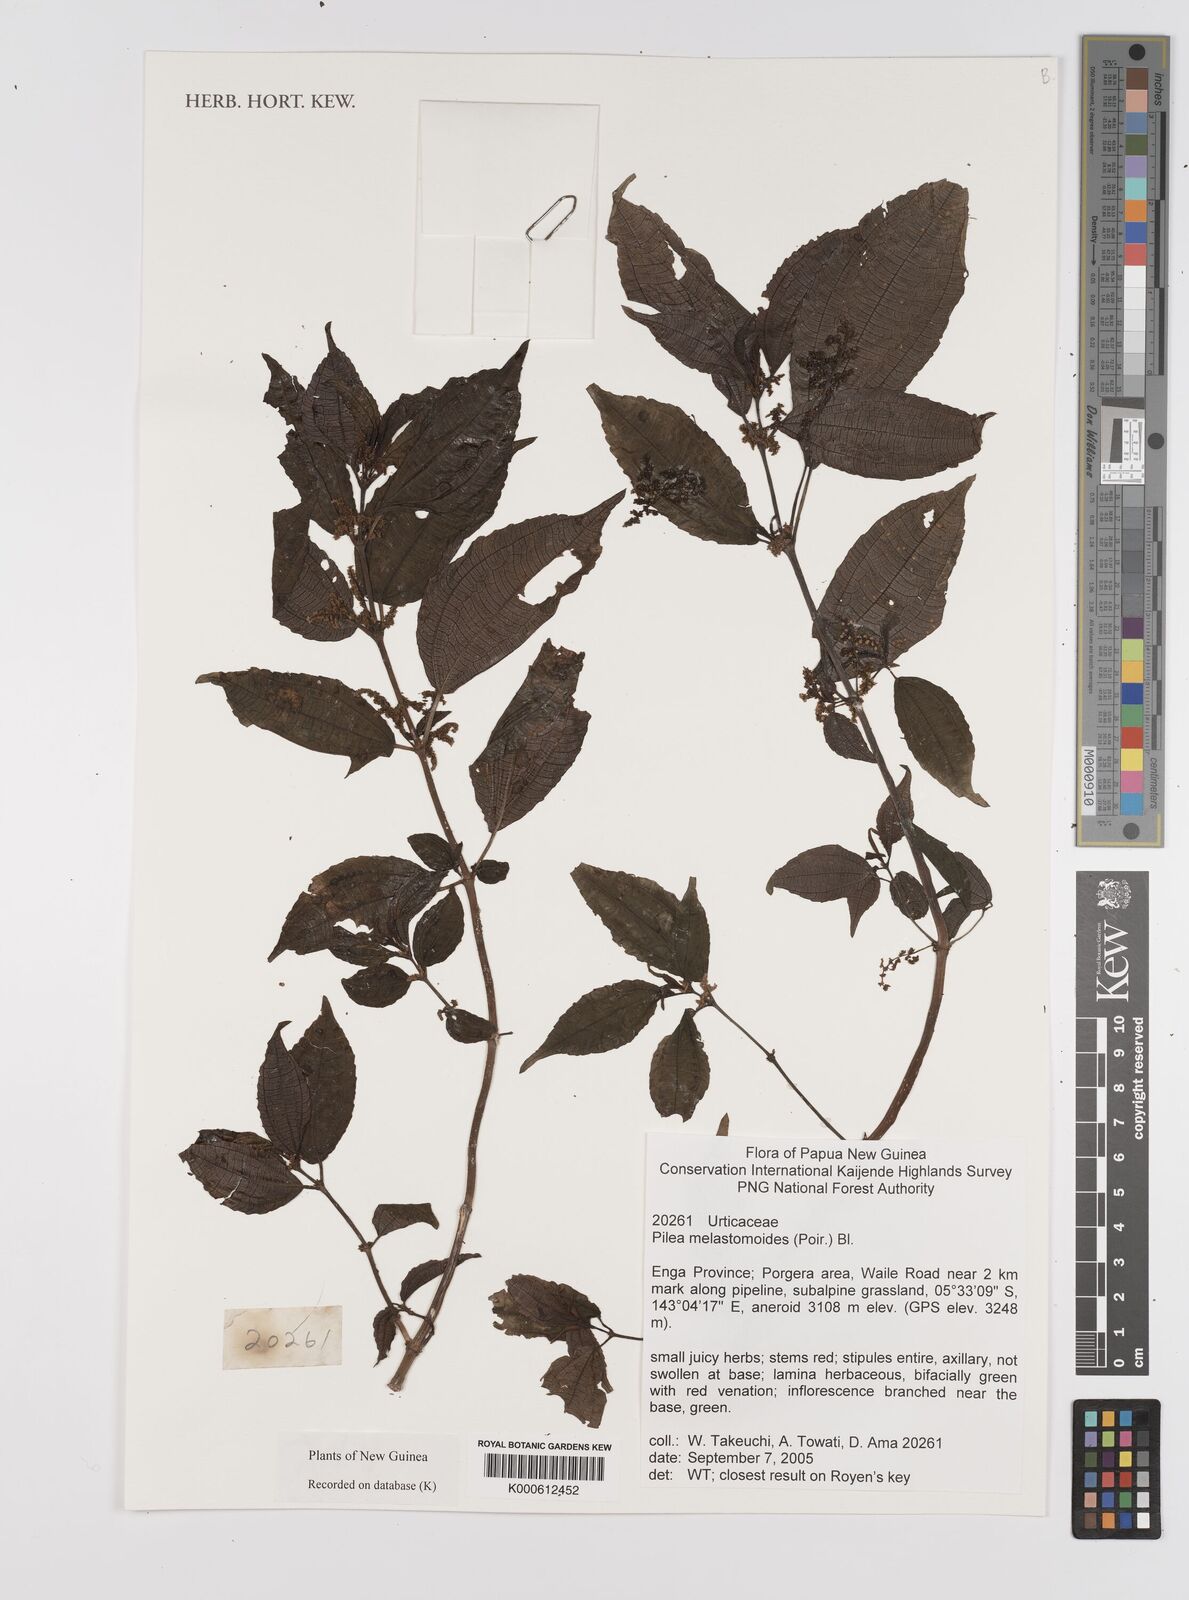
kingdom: Plantae
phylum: Tracheophyta
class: Magnoliopsida
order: Rosales
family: Urticaceae
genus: Pilea
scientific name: Pilea
